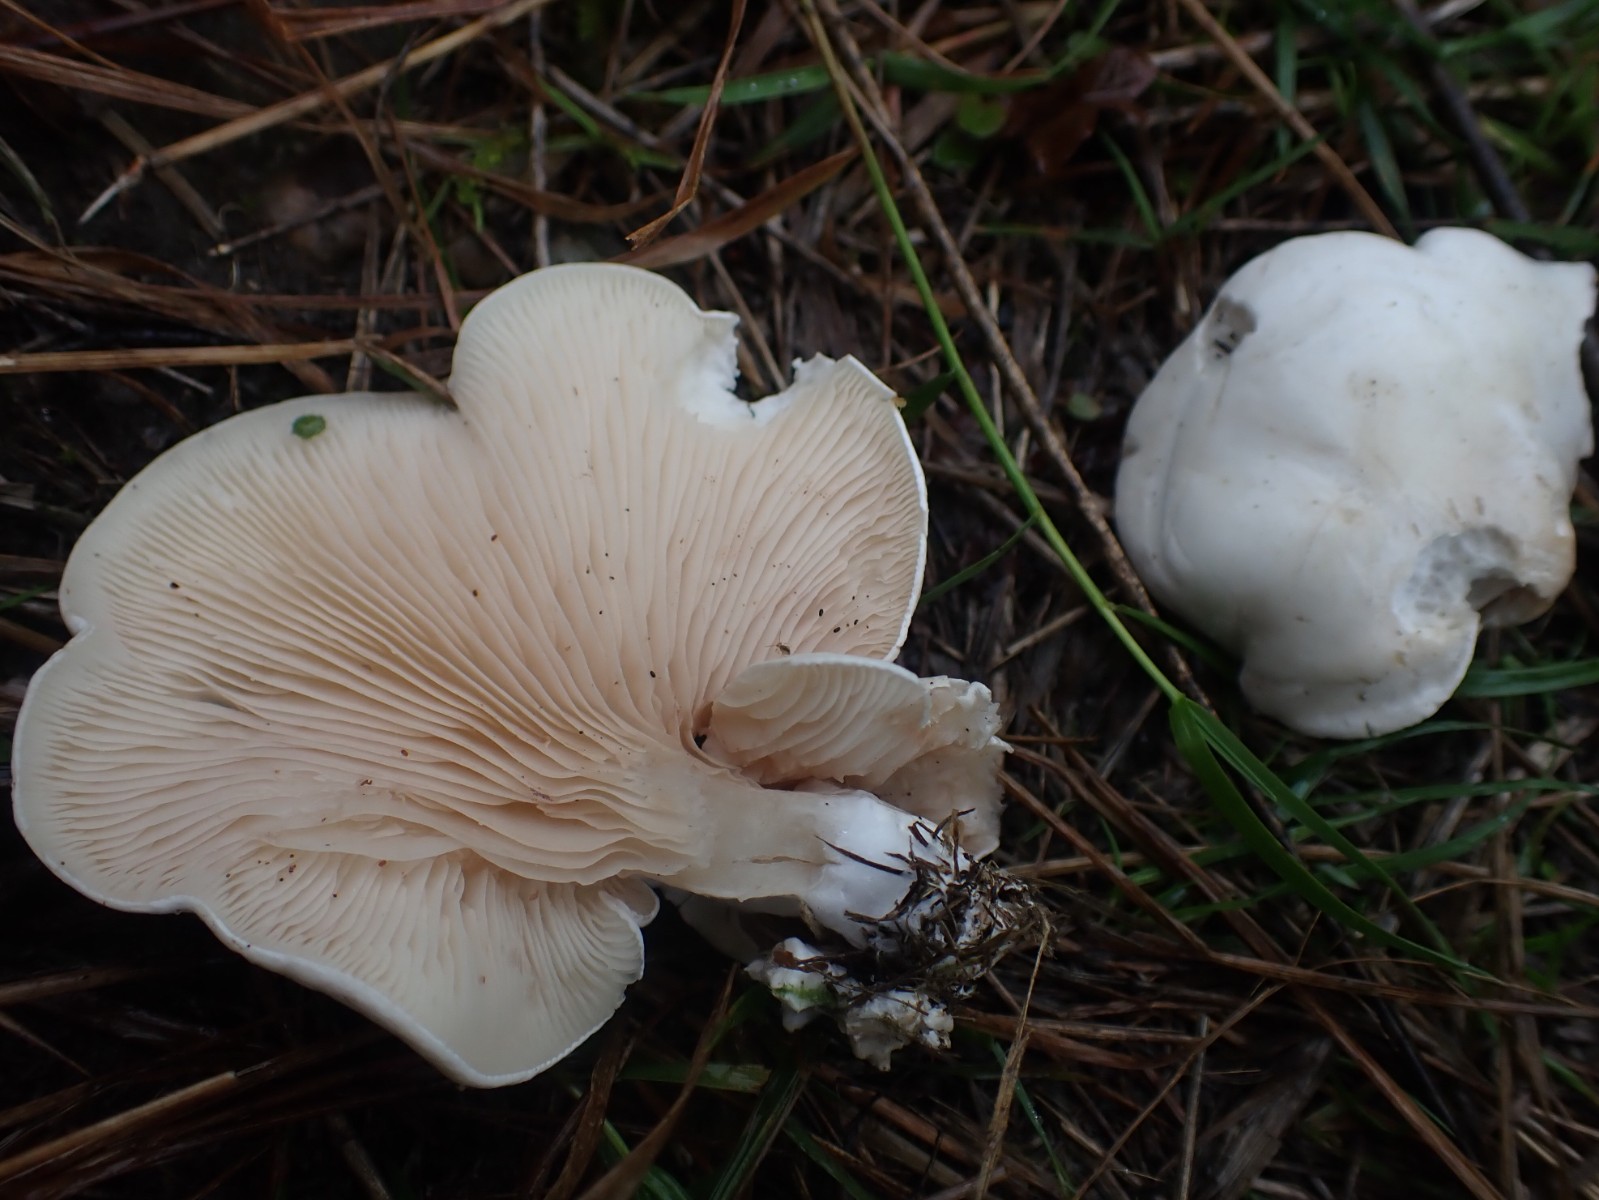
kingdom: Fungi
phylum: Basidiomycota
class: Agaricomycetes
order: Agaricales
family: Entolomataceae
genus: Clitopilus
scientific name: Clitopilus prunulus
